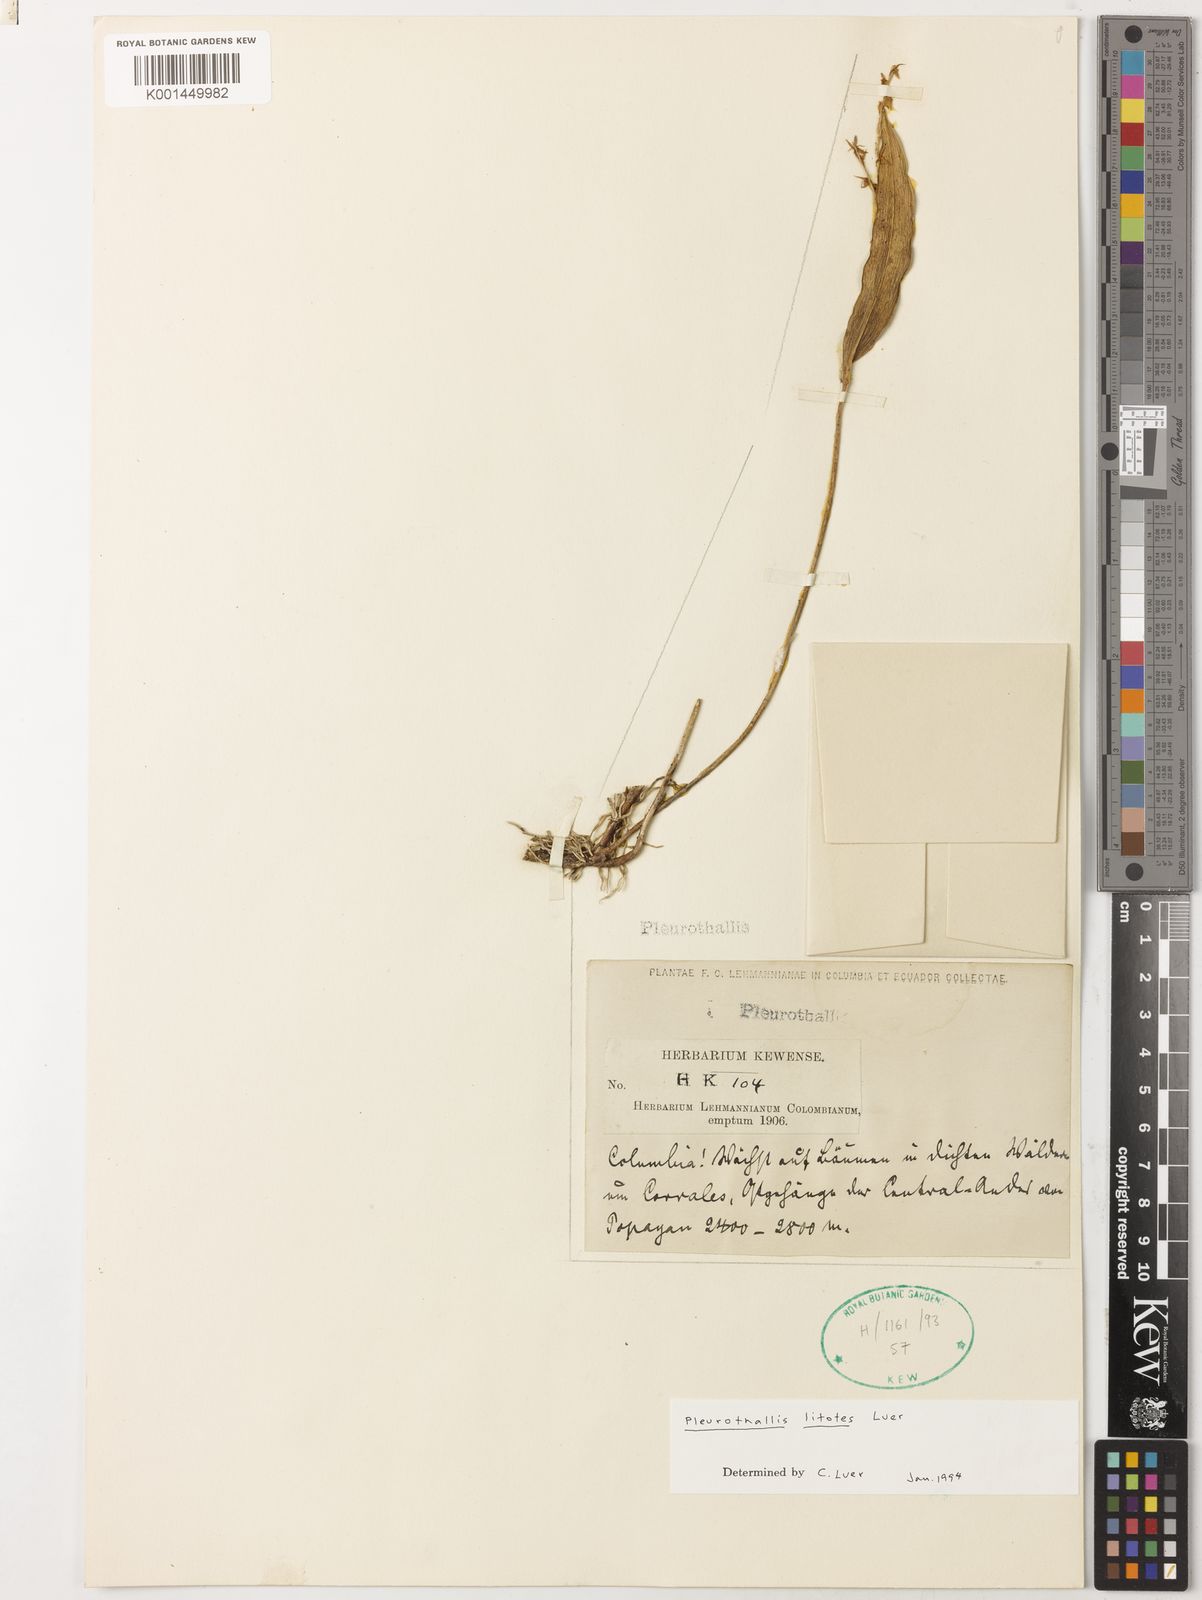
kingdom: Plantae
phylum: Tracheophyta
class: Liliopsida
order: Asparagales
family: Orchidaceae
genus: Pleurothallis
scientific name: Pleurothallis litotes
